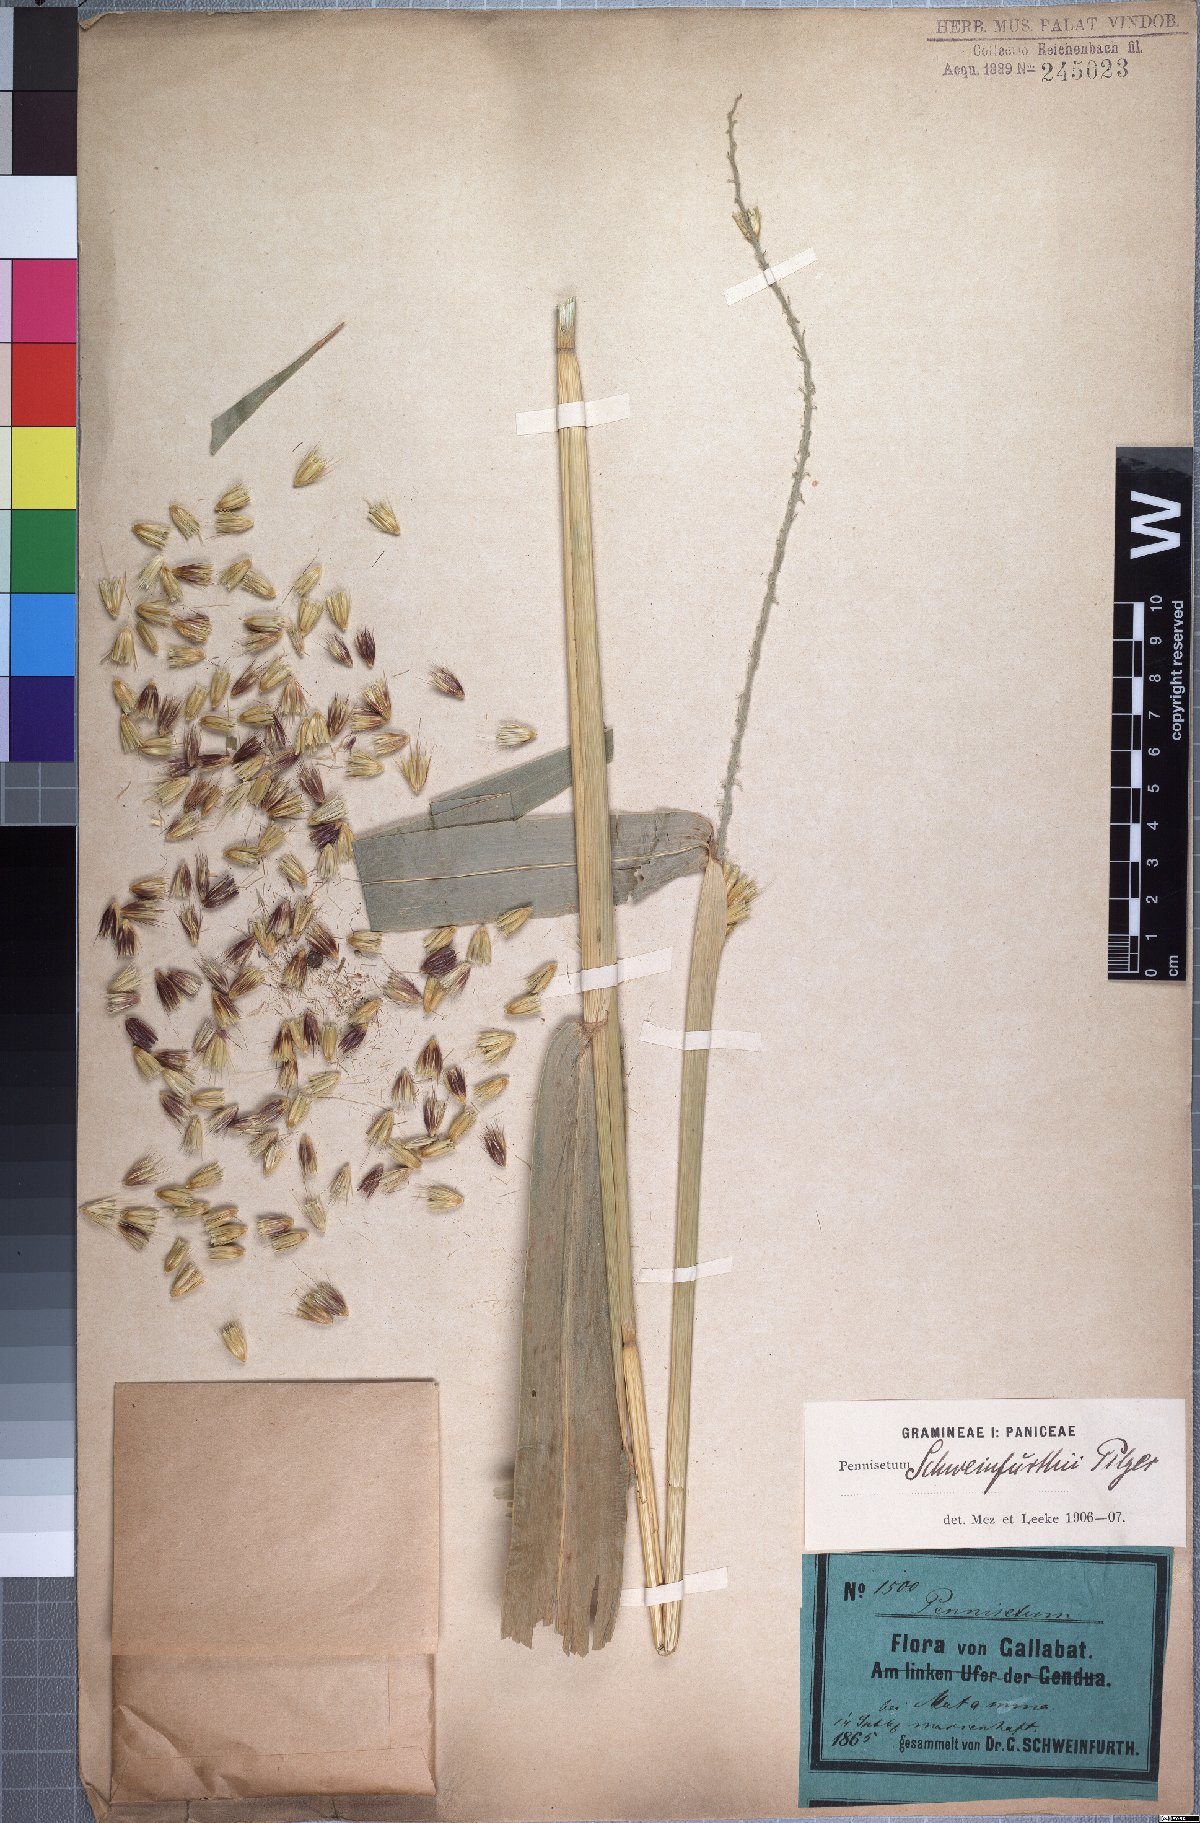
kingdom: Plantae
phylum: Tracheophyta
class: Liliopsida
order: Poales
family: Poaceae
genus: Cenchrus
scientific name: Cenchrus schweinfurthii
